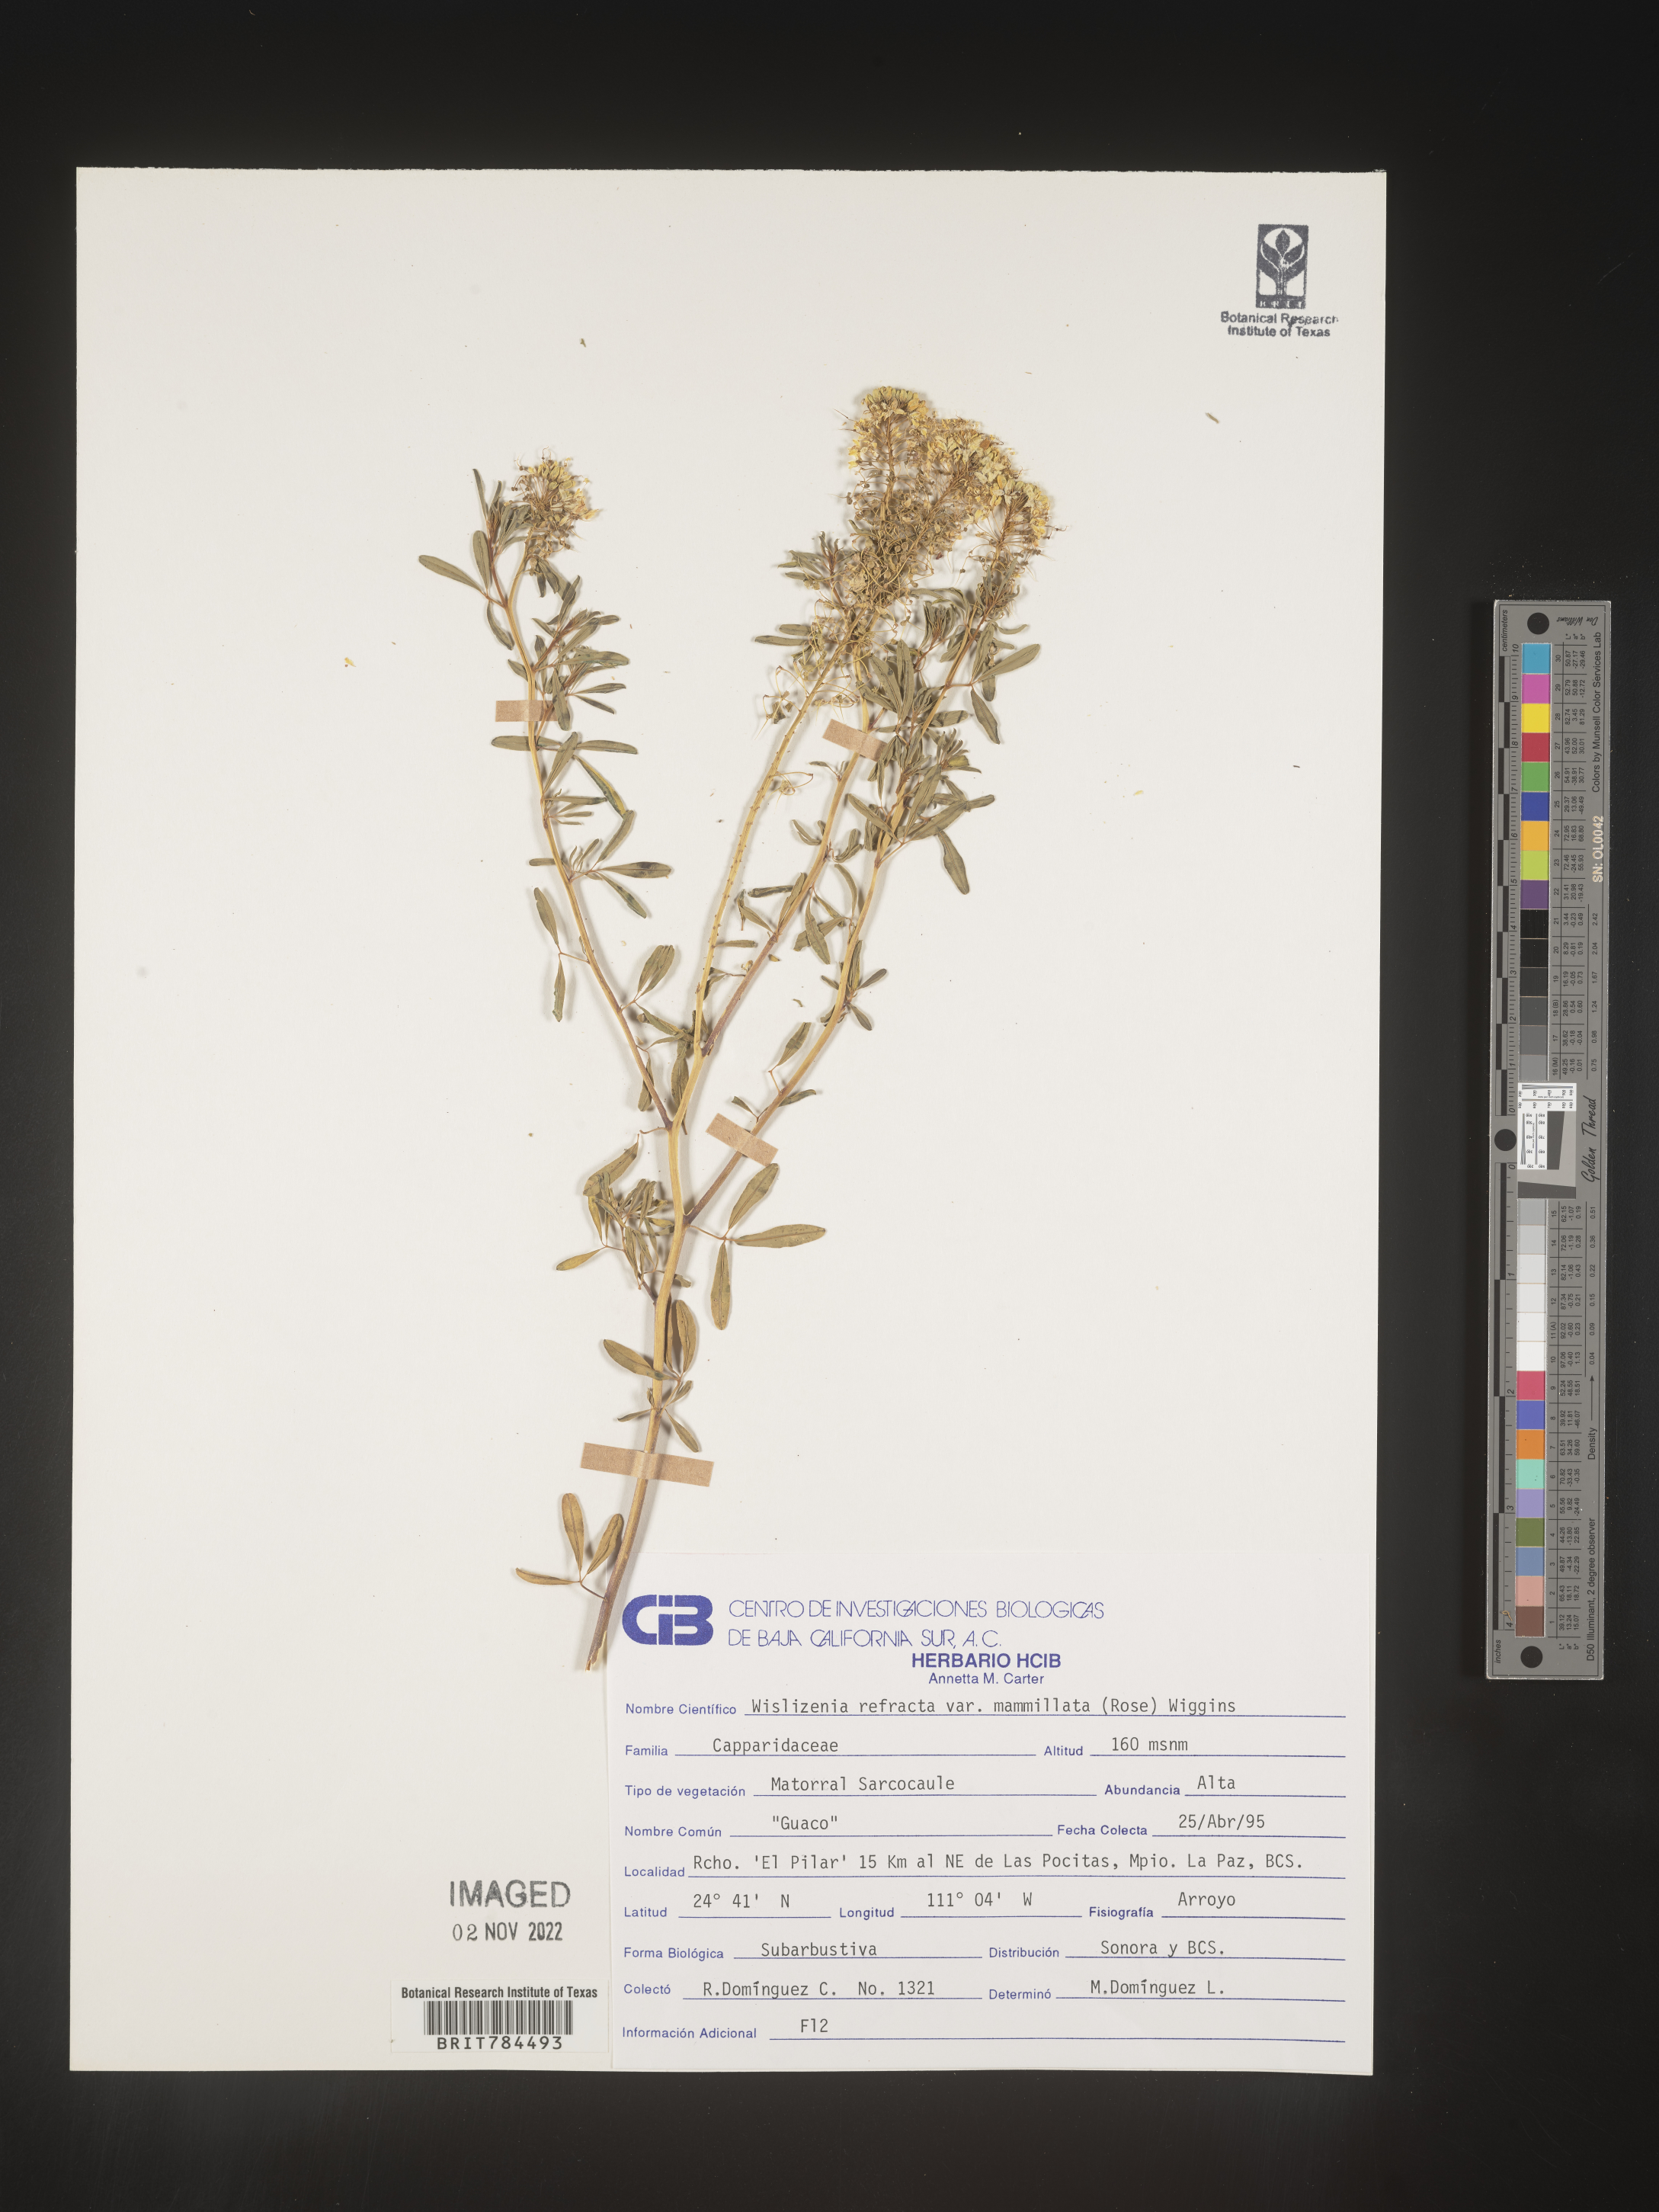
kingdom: Plantae
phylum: Tracheophyta
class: Magnoliopsida
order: Brassicales
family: Cleomaceae
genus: Cleomella
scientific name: Cleomella
